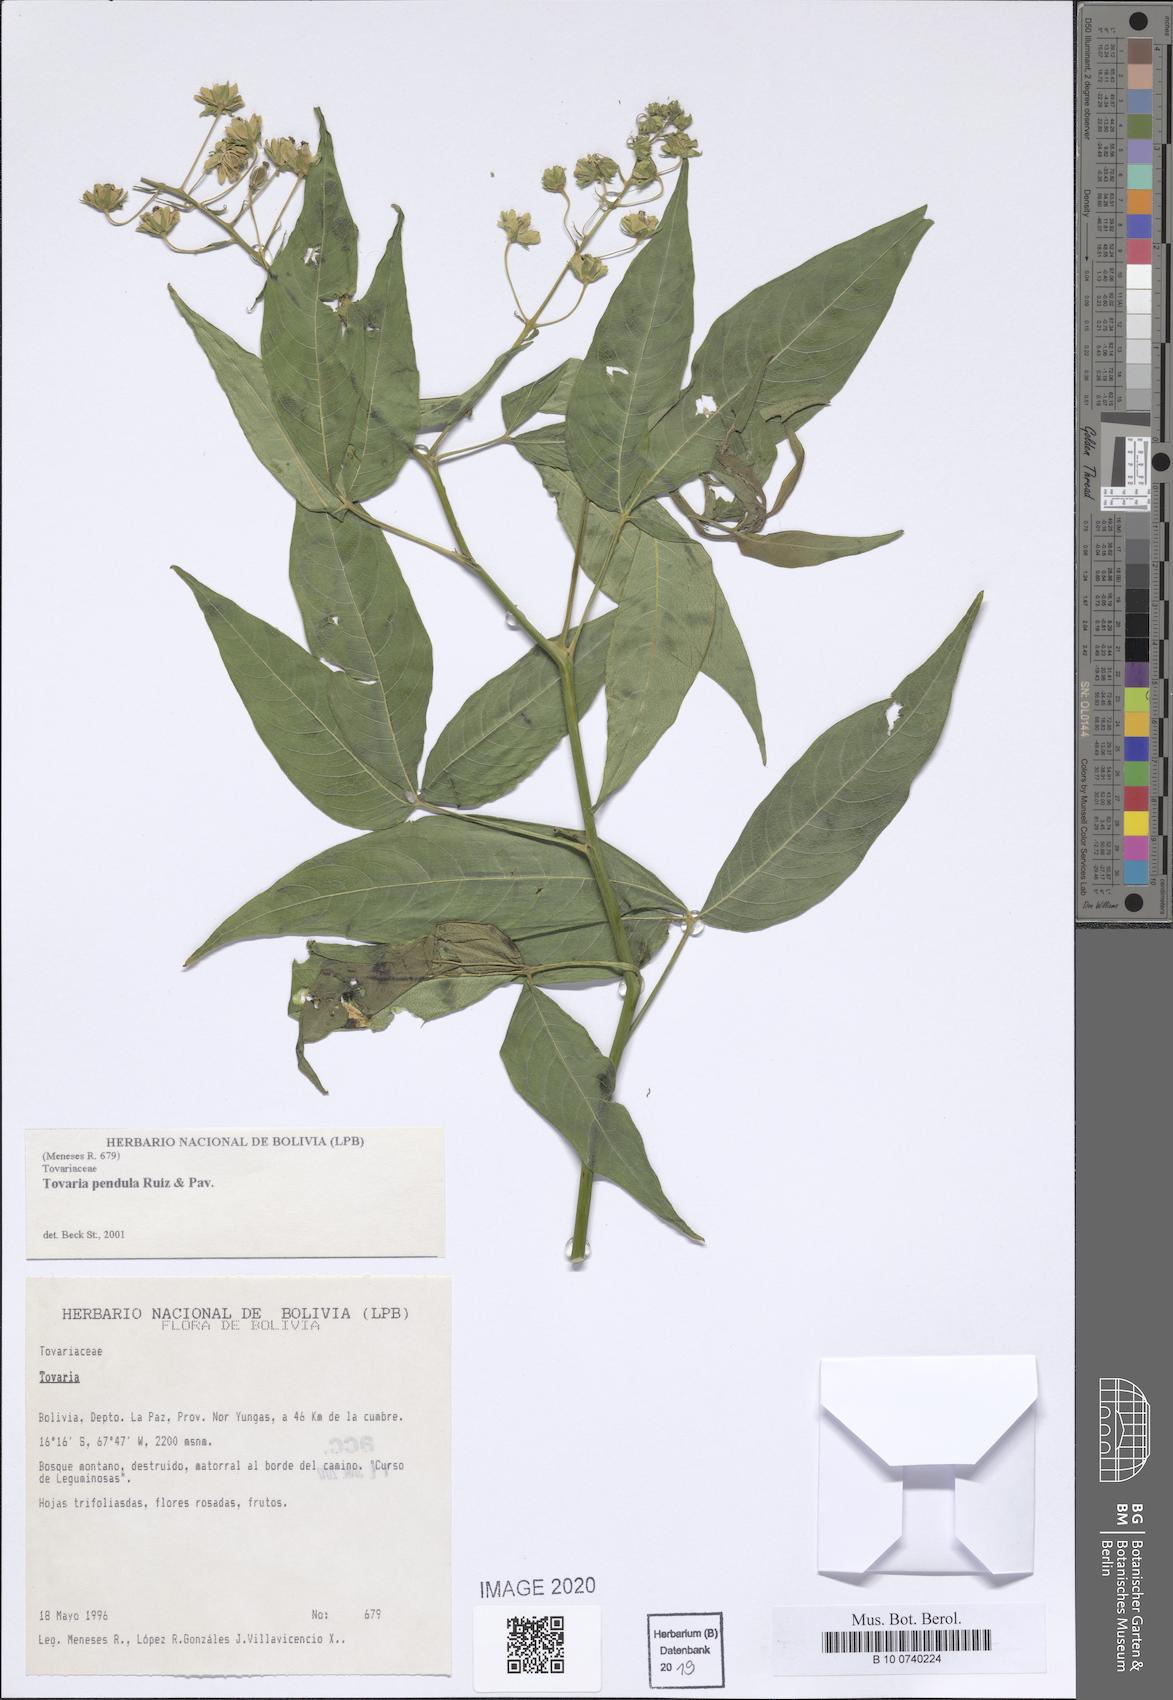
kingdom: Plantae
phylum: Tracheophyta
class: Magnoliopsida
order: Brassicales
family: Tovariaceae
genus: Tovaria
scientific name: Tovaria pendula
